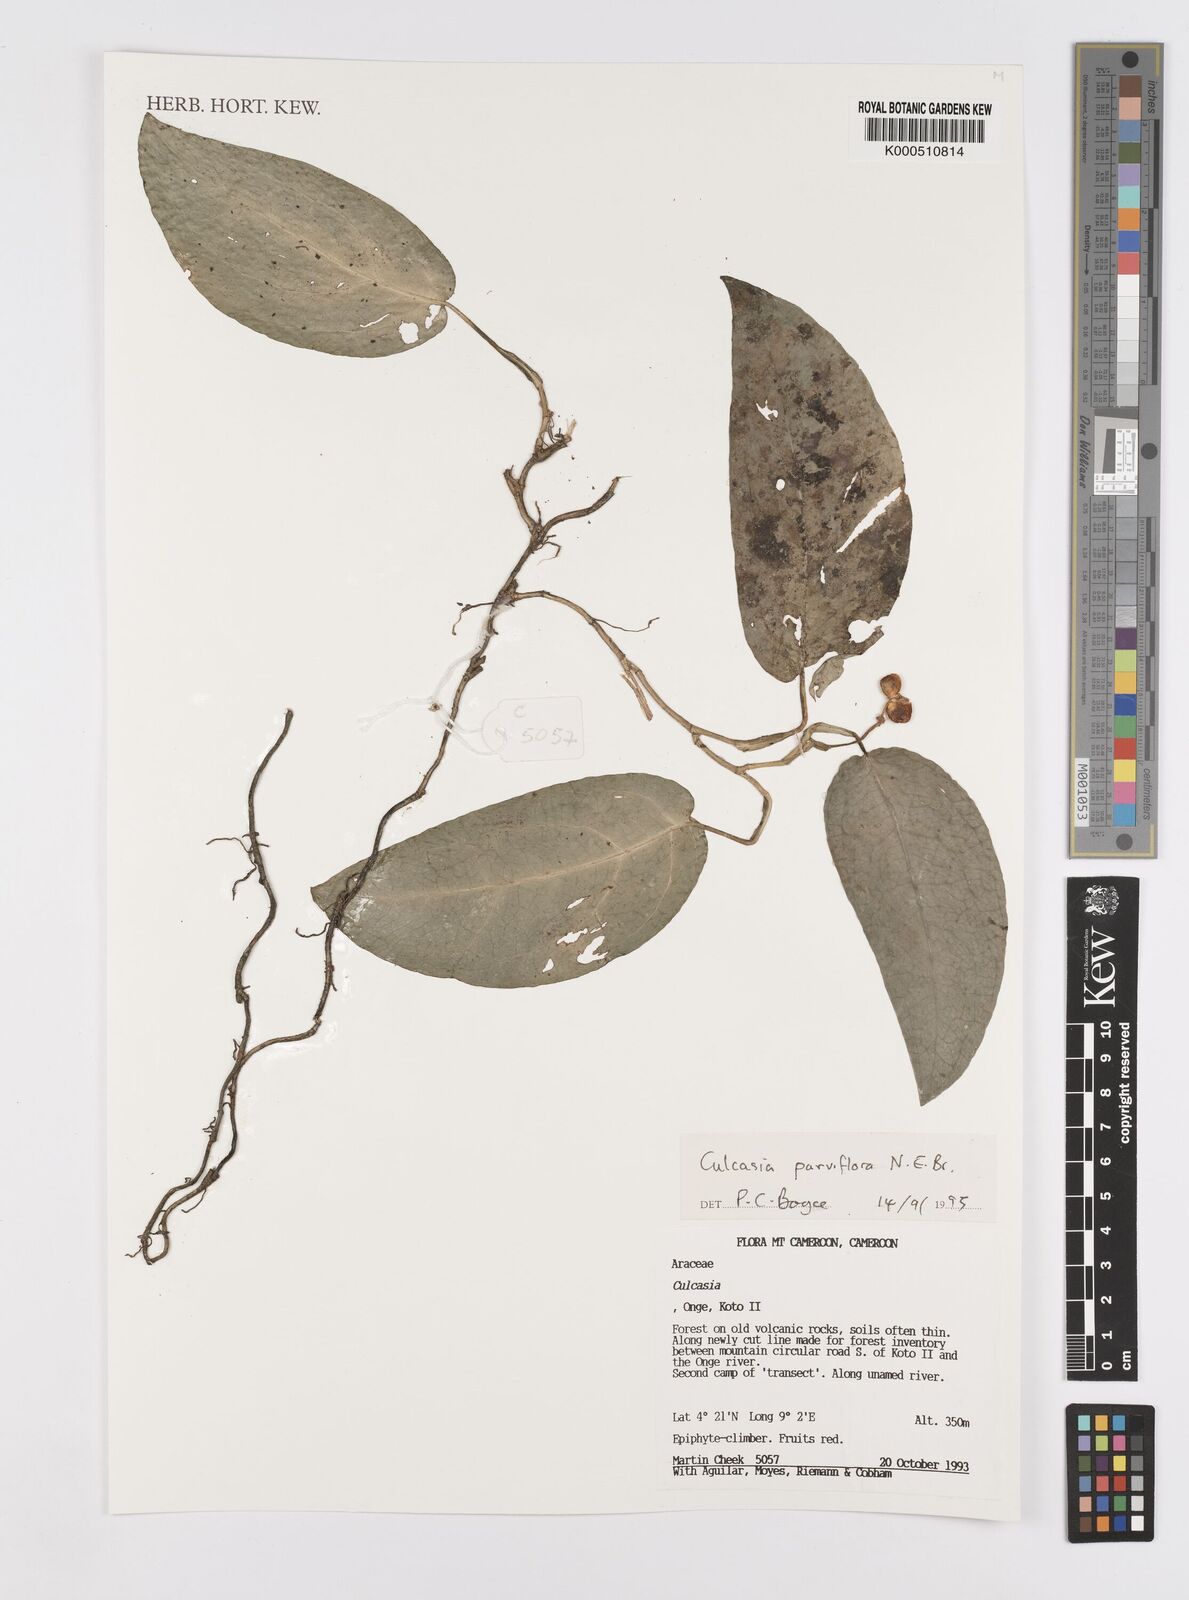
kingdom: Plantae
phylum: Tracheophyta
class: Liliopsida
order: Alismatales
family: Araceae
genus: Culcasia
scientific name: Culcasia parviflora
